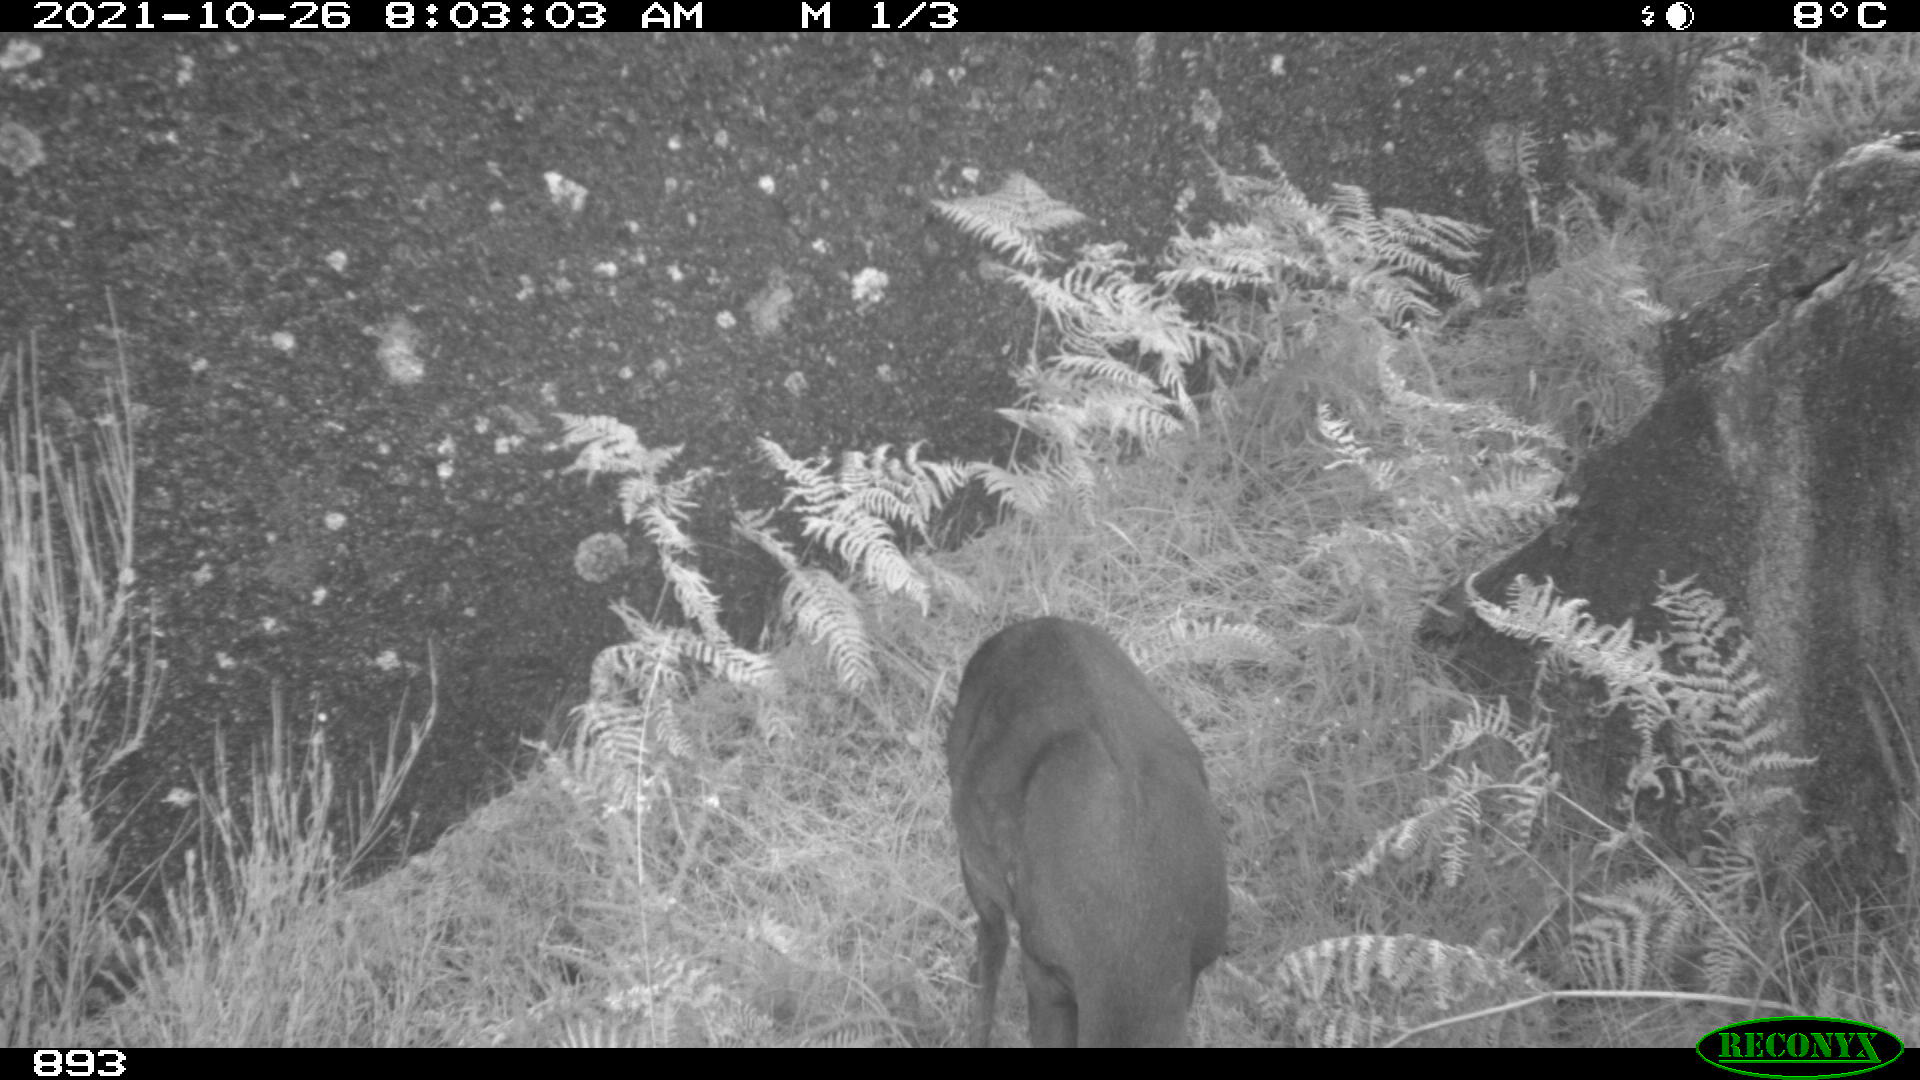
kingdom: Animalia
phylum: Chordata
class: Mammalia
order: Artiodactyla
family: Cervidae
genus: Capreolus
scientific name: Capreolus capreolus
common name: Western roe deer
